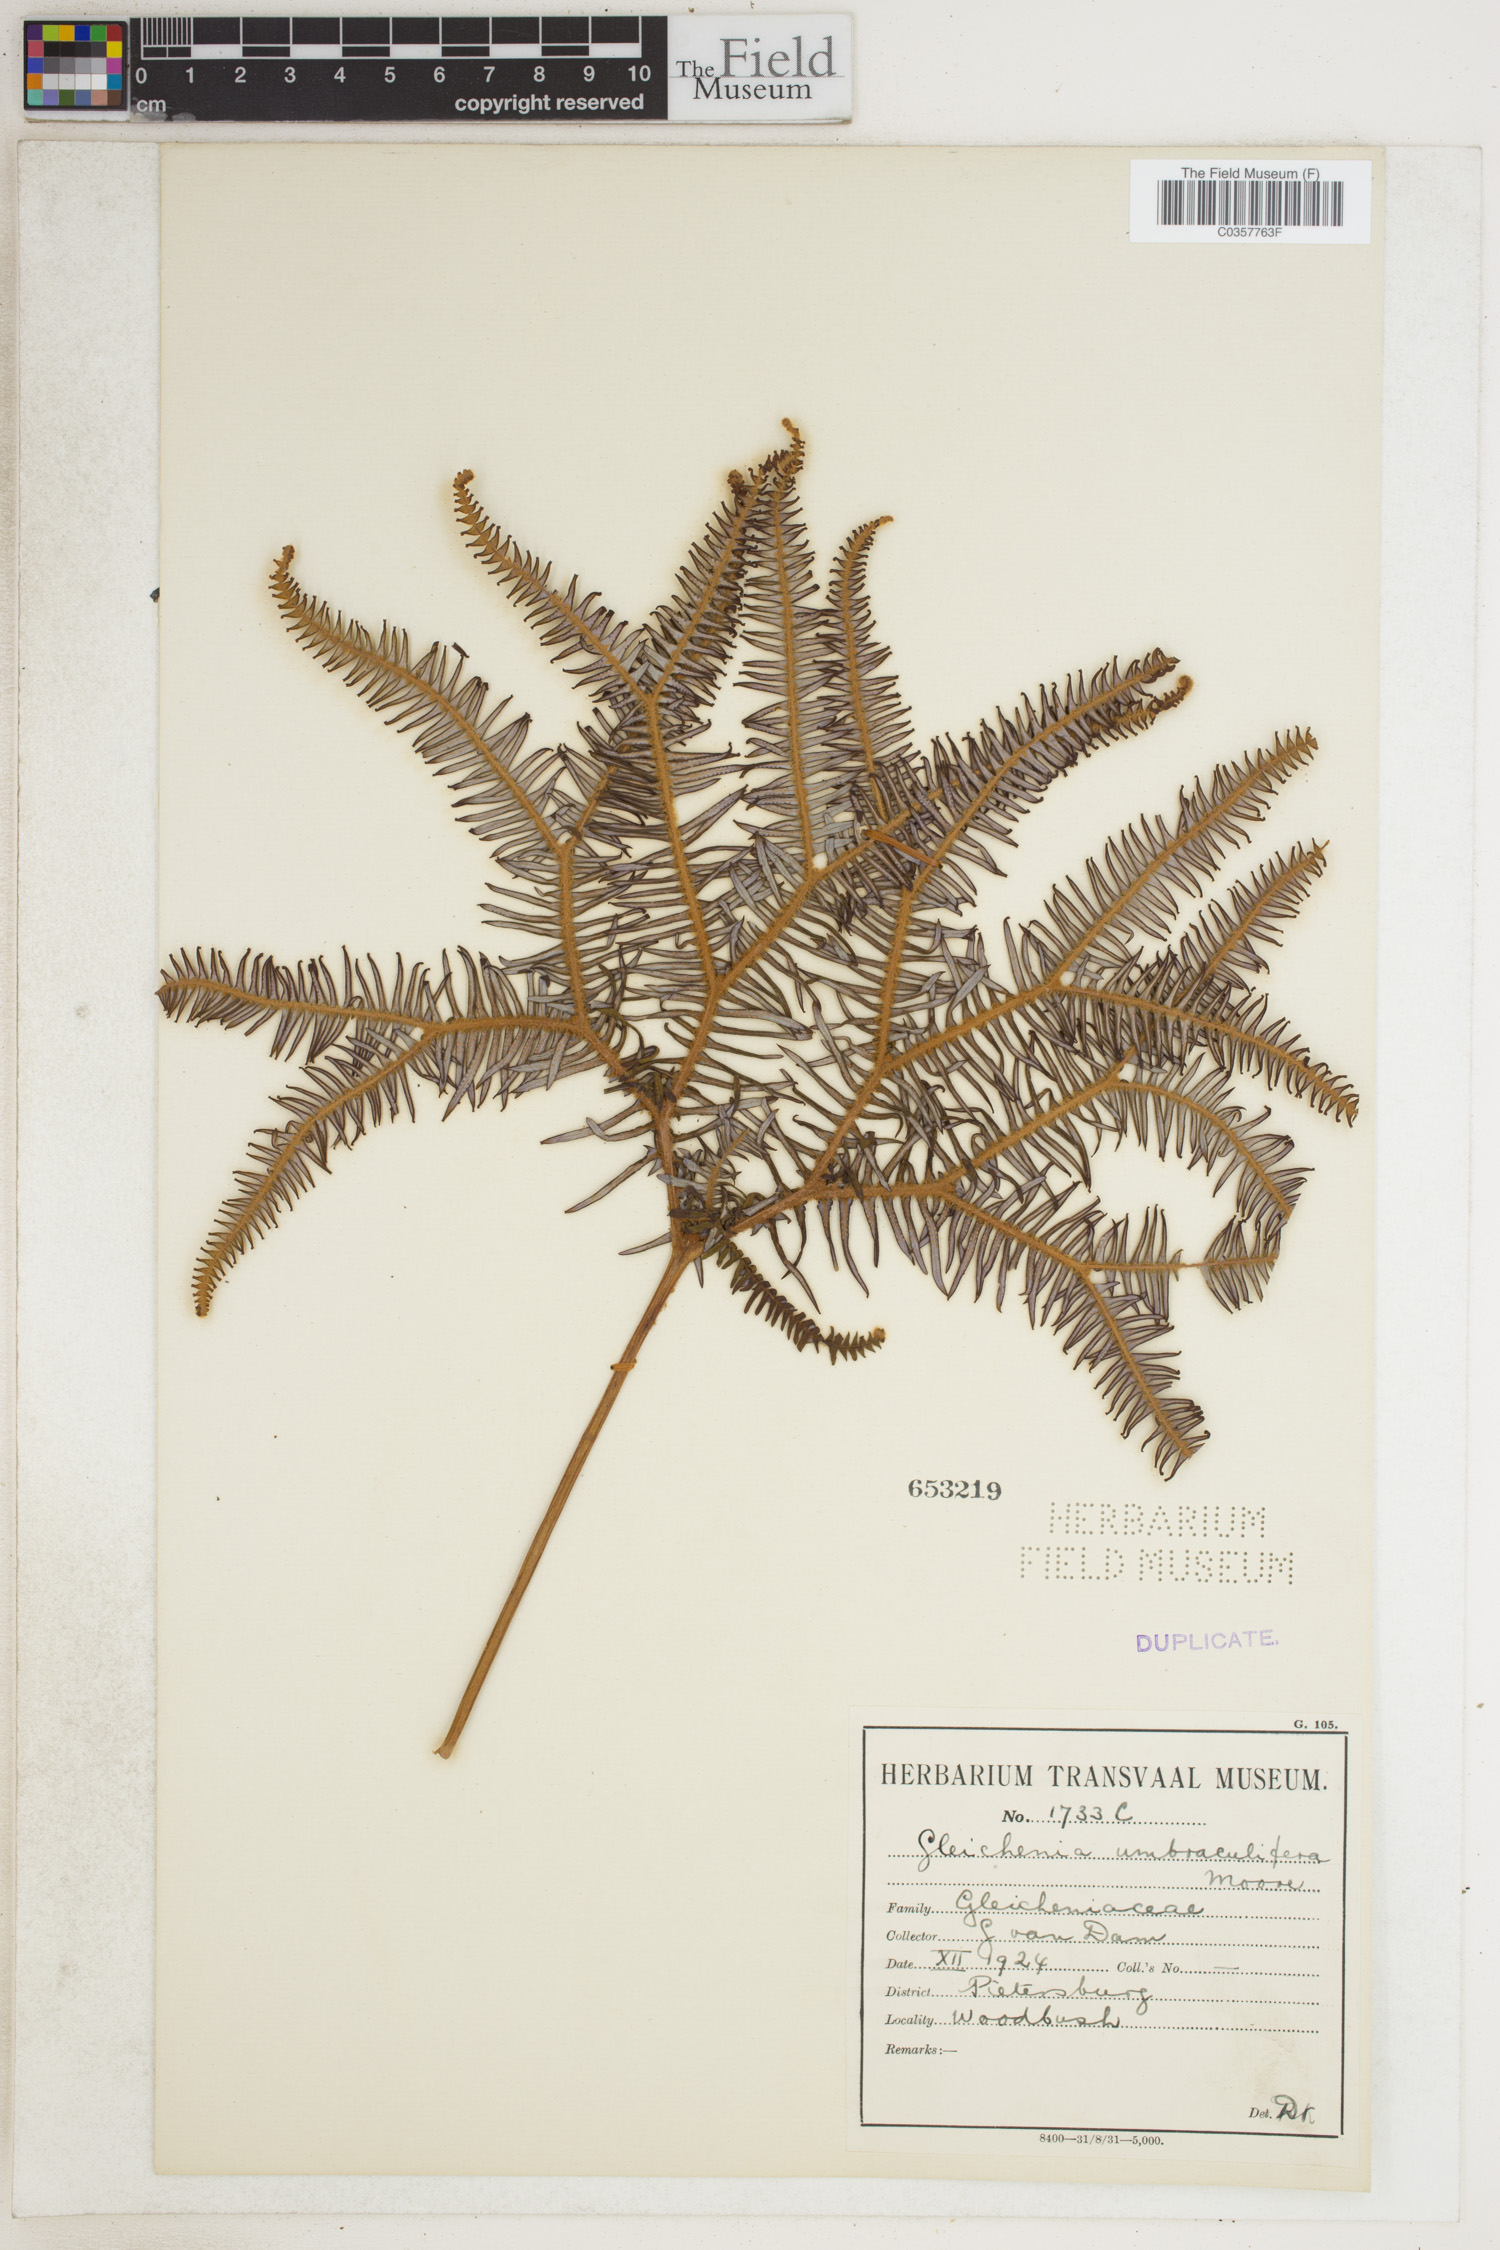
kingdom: Plantae
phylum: Tracheophyta
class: Polypodiopsida
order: Gleicheniales
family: Gleicheniaceae
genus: Sticherus
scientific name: Sticherus umbraculifer
